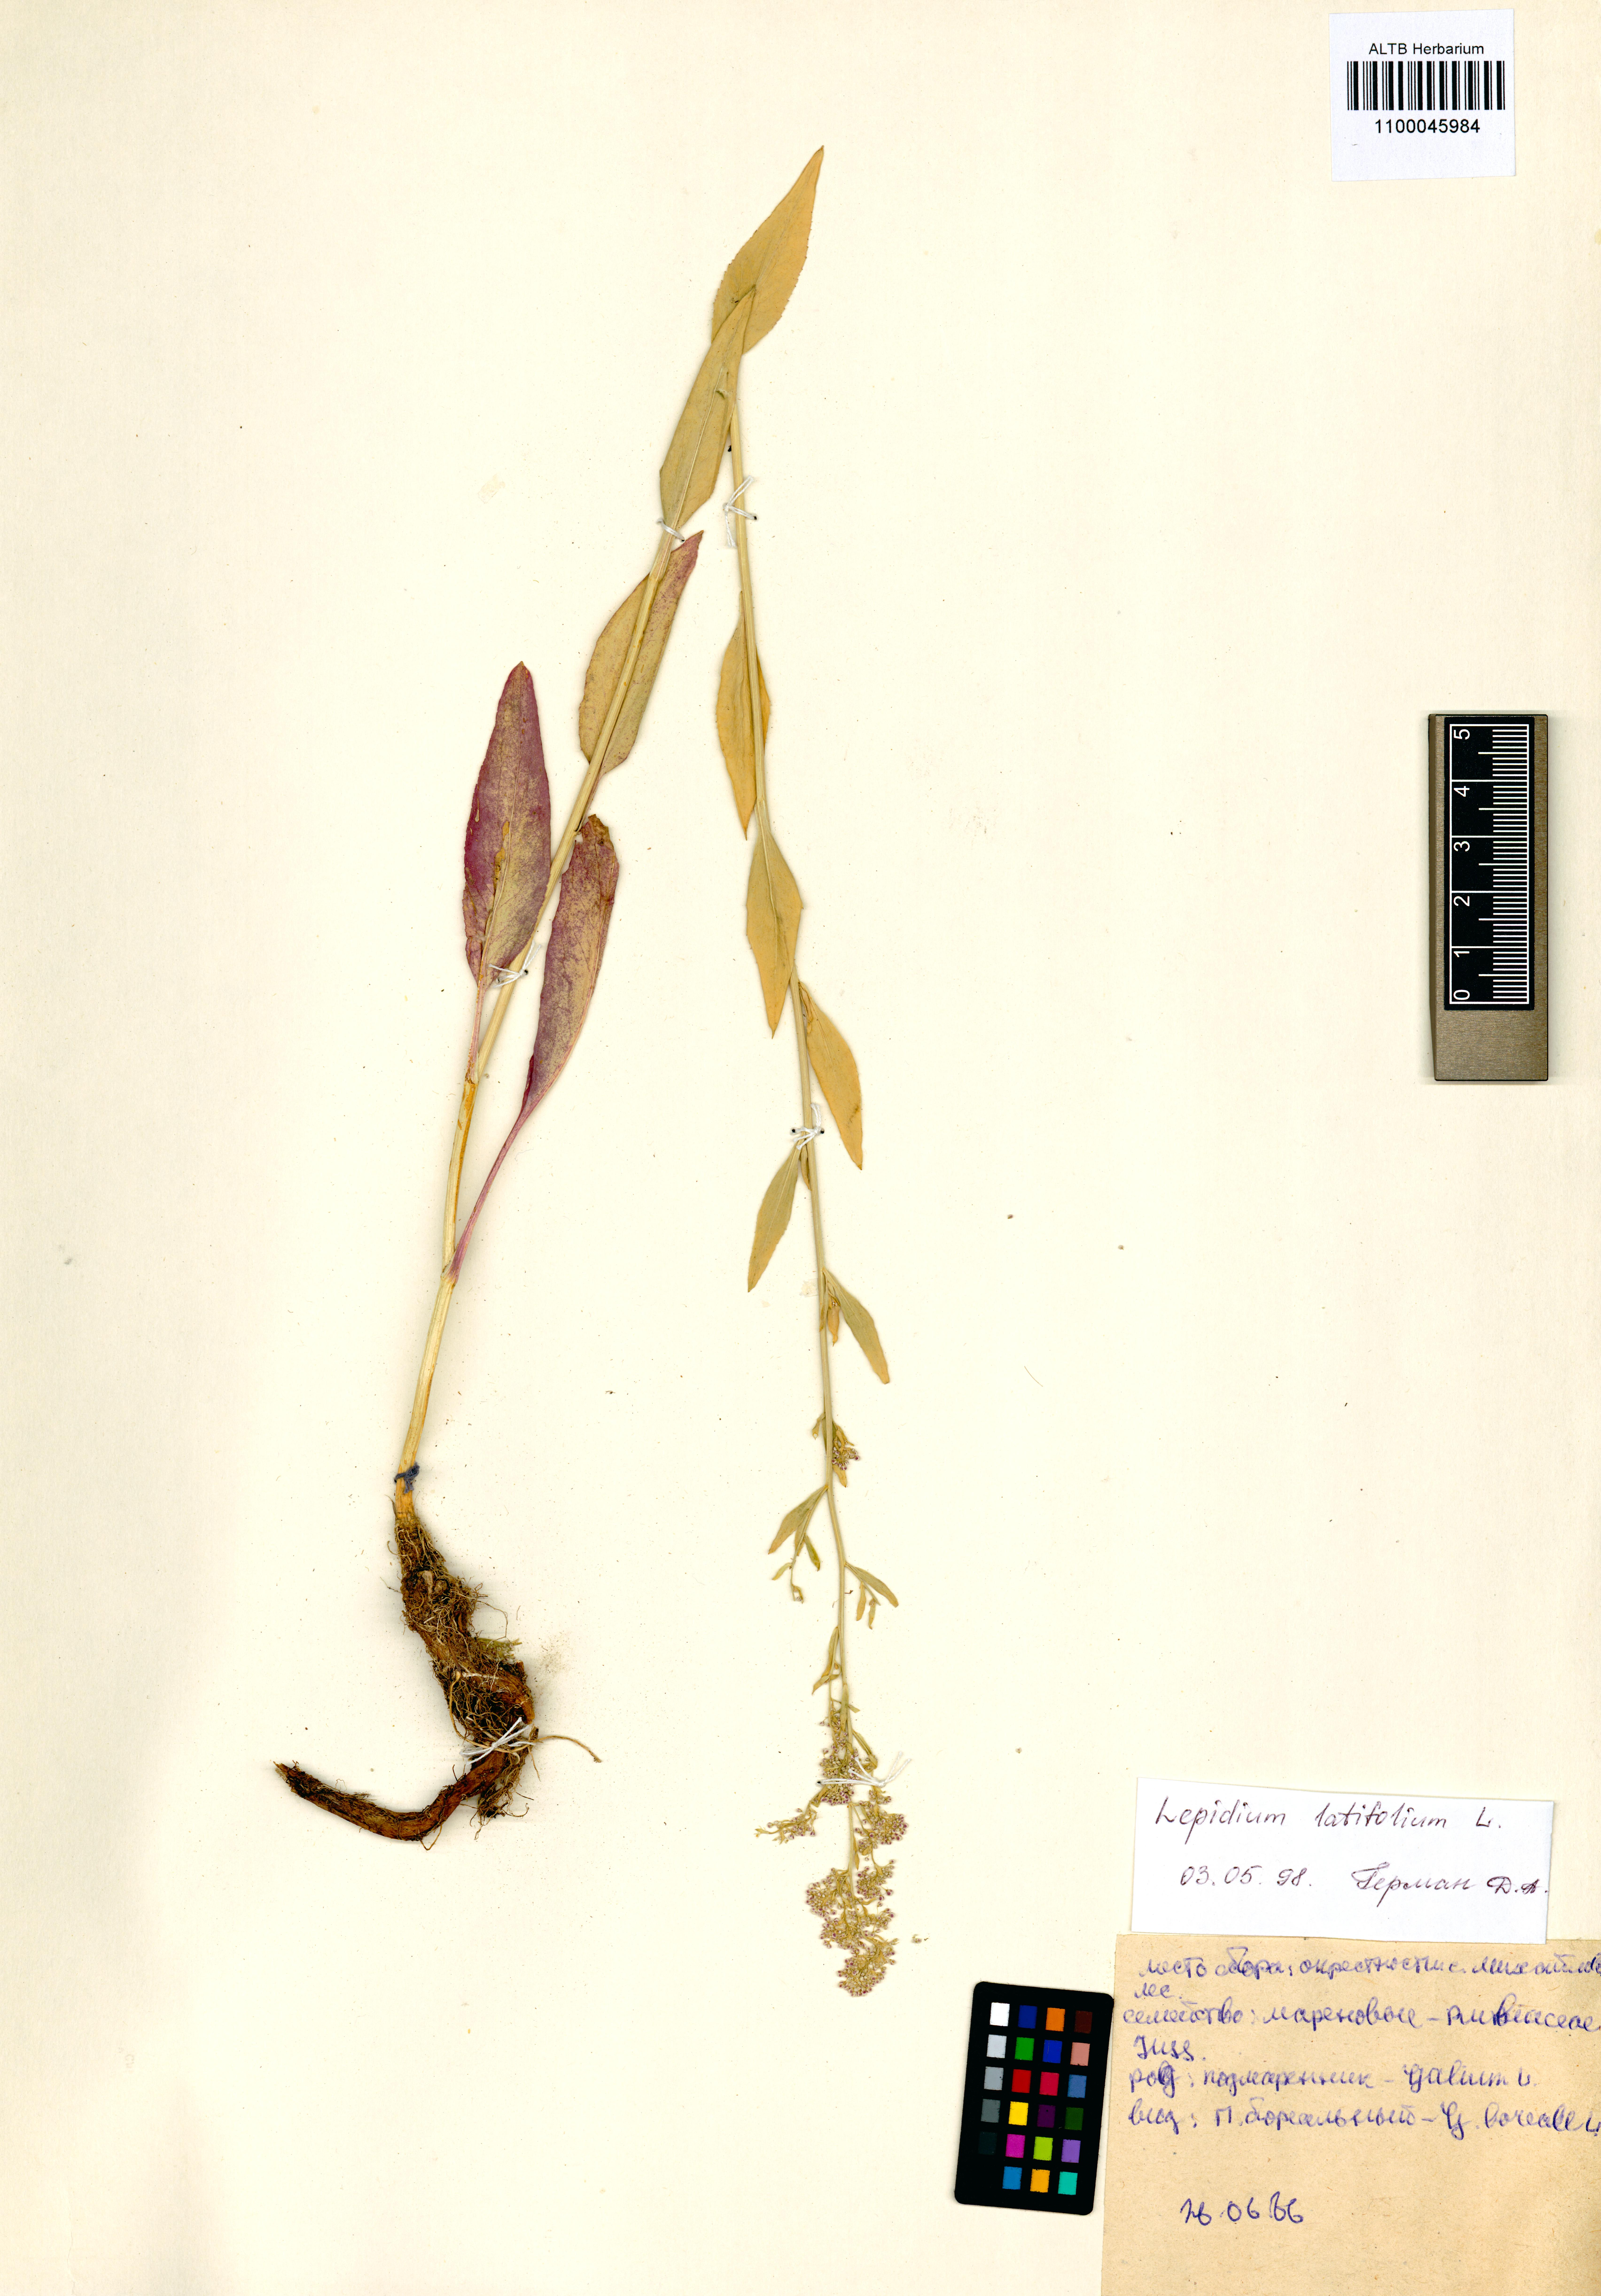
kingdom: Plantae
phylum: Tracheophyta
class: Magnoliopsida
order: Brassicales
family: Brassicaceae
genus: Lepidium
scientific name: Lepidium latifolium
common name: Dittander
